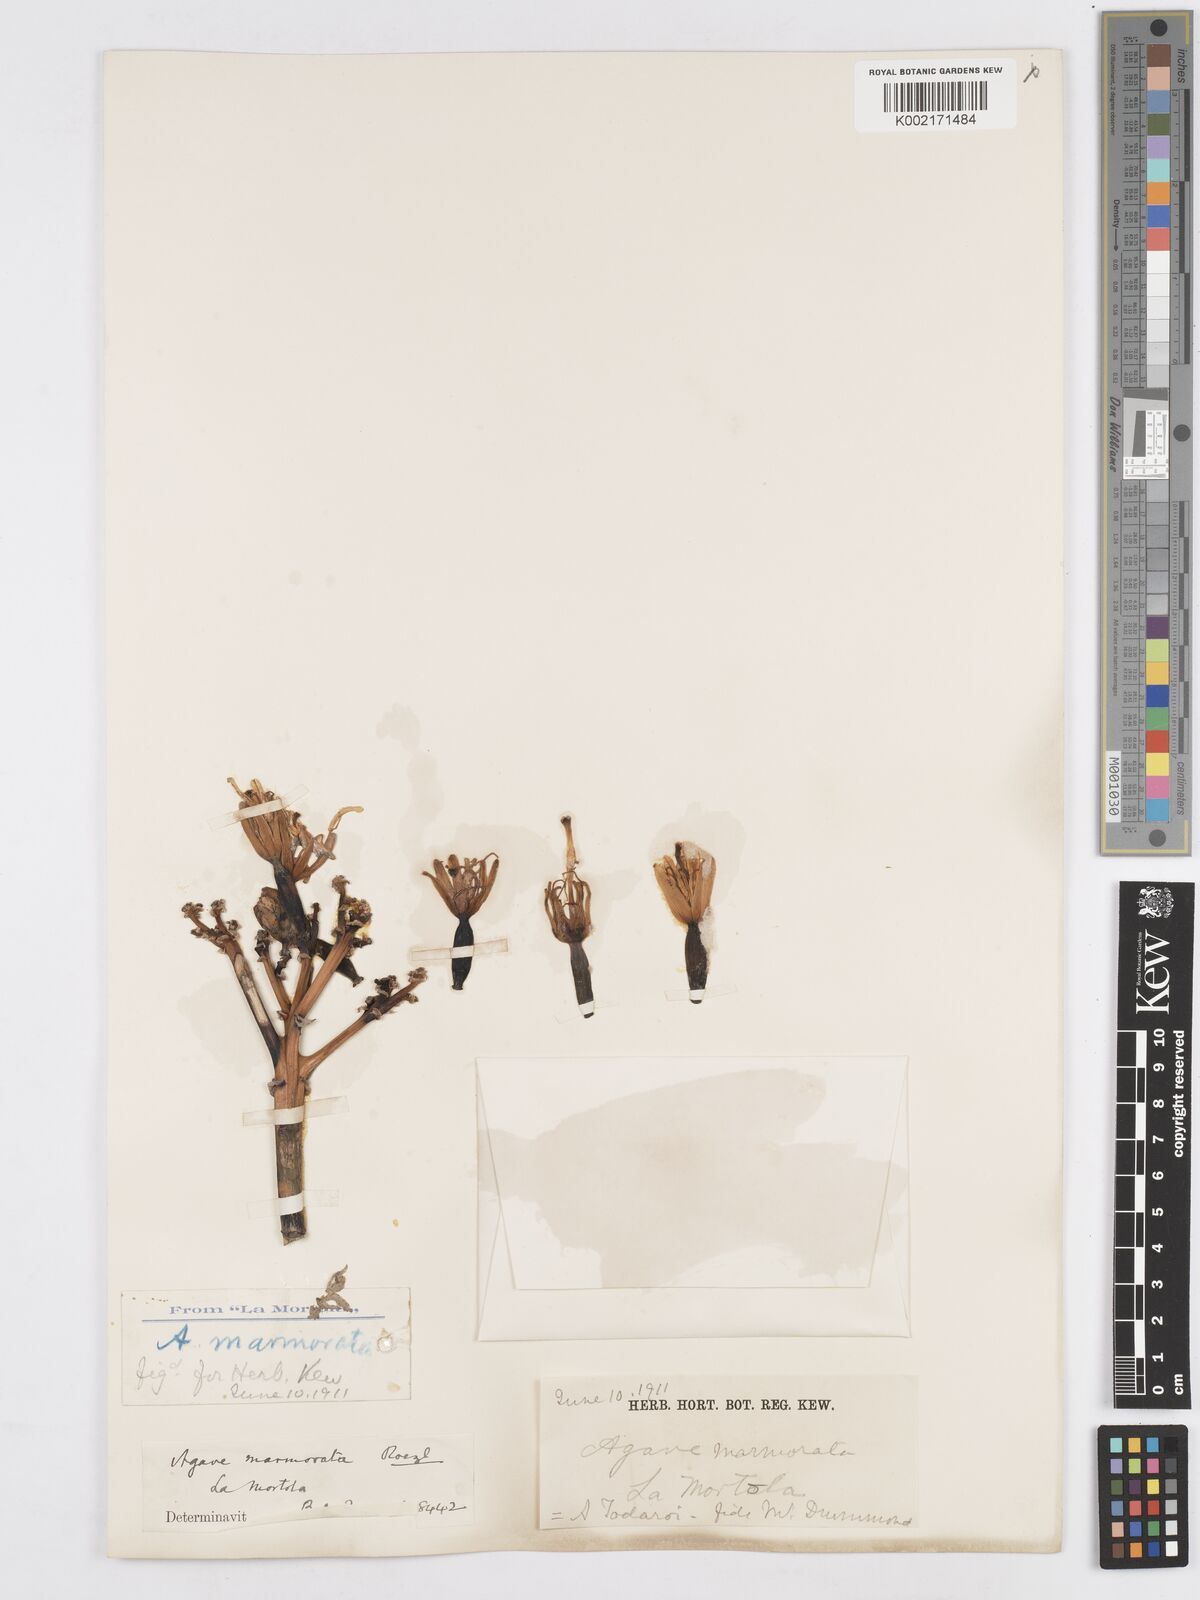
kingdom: Plantae
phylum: Tracheophyta
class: Liliopsida
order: Asparagales
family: Asparagaceae
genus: Agave
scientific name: Agave marmorata
